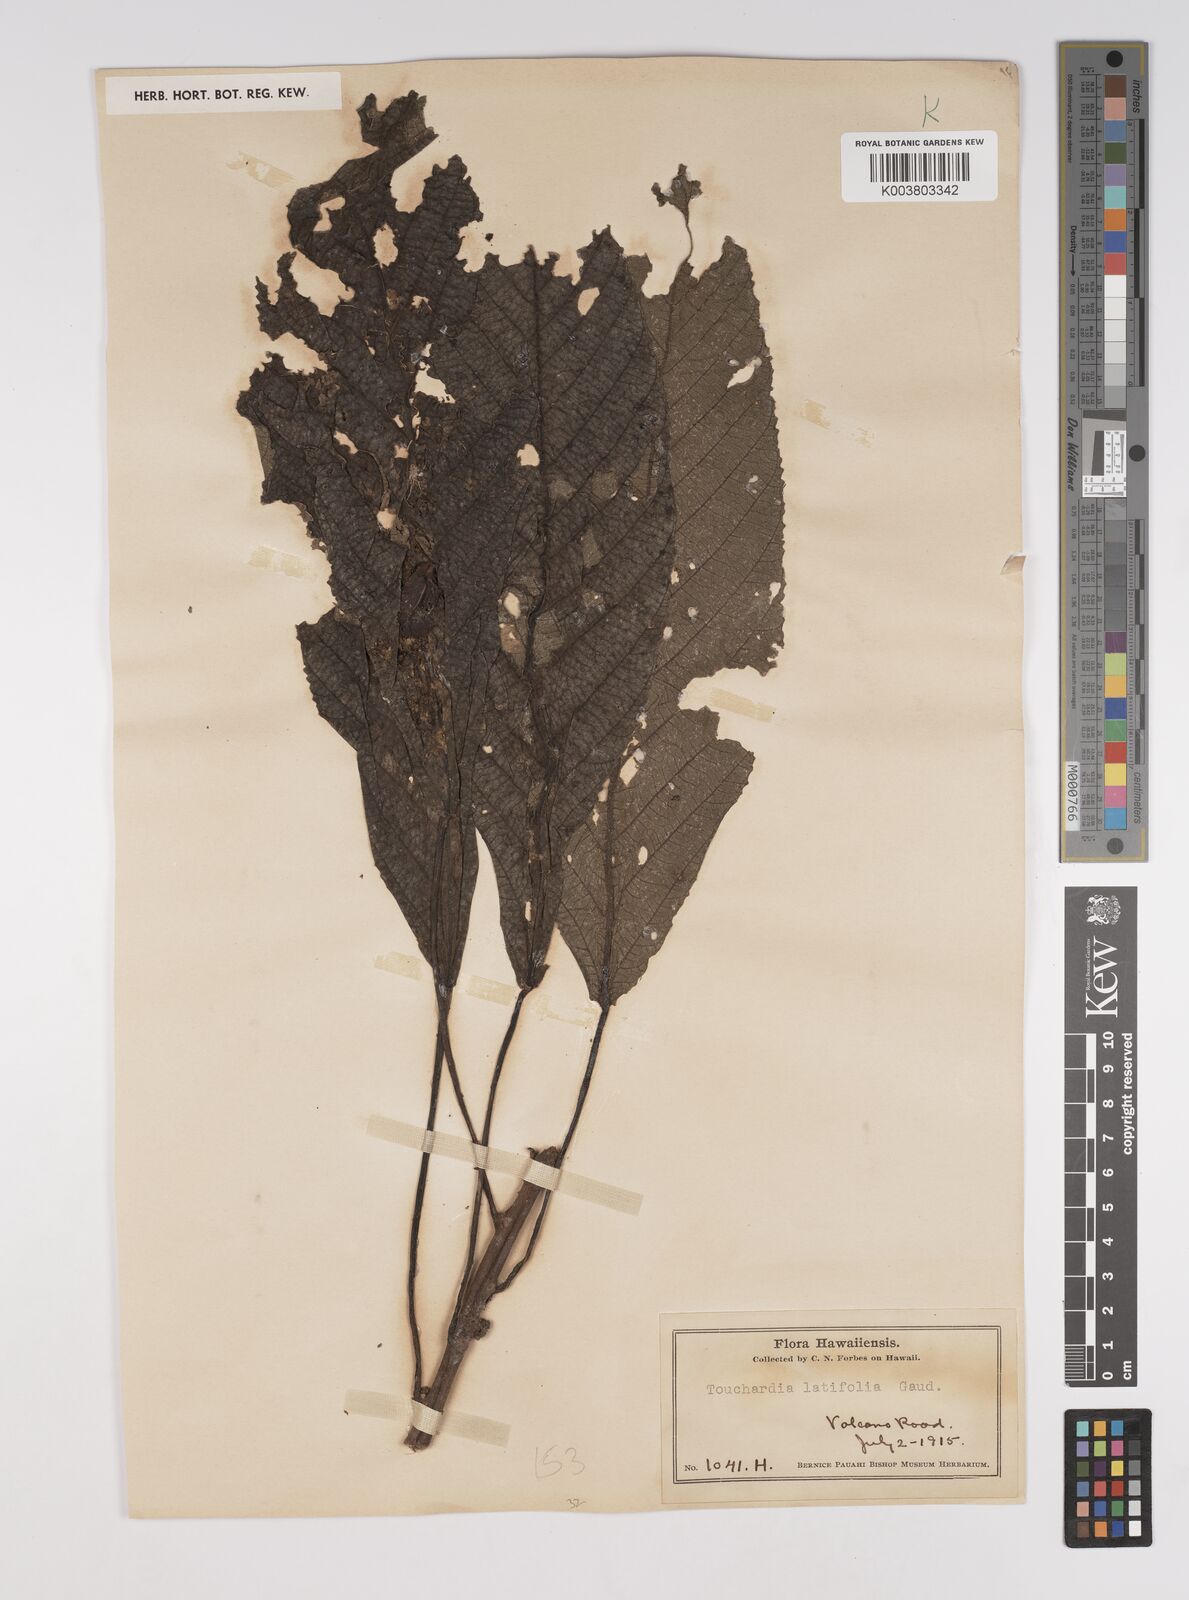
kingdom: Plantae
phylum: Tracheophyta
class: Magnoliopsida
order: Rosales
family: Urticaceae
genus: Touchardia
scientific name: Touchardia latifolia
